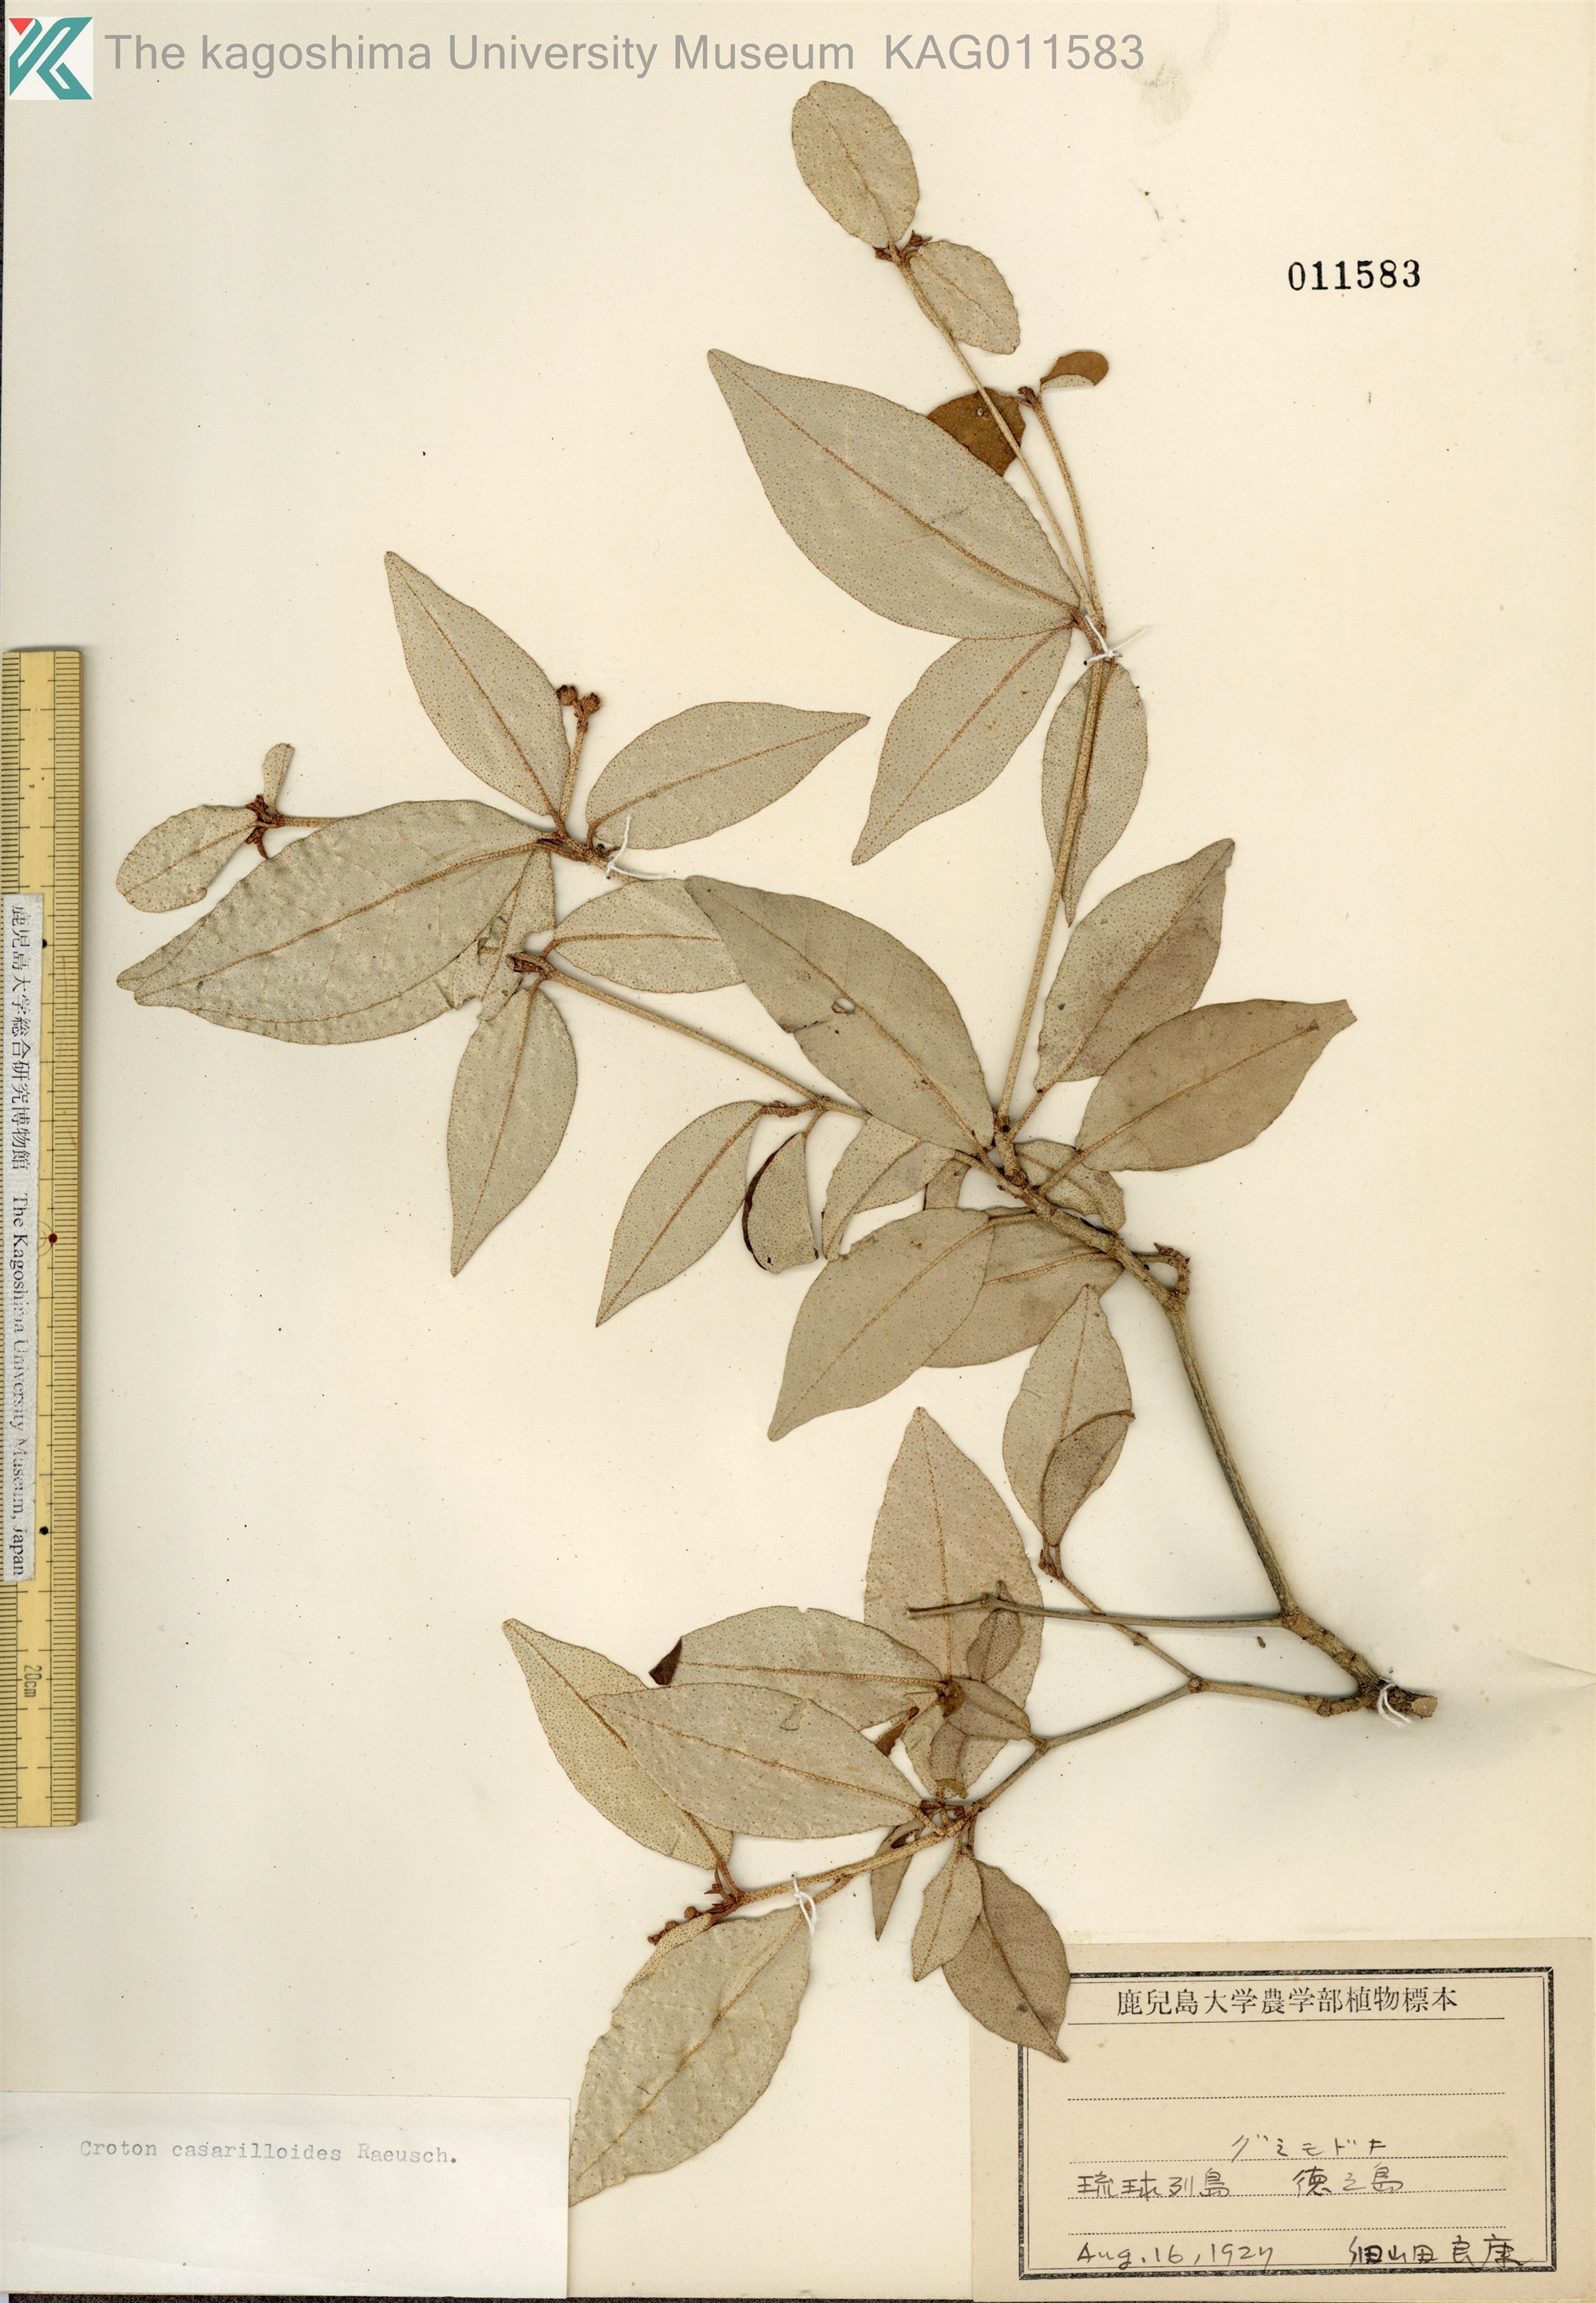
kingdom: Plantae
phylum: Tracheophyta
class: Magnoliopsida
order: Malpighiales
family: Euphorbiaceae
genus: Croton
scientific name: Croton cascarilloides
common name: グミモドキ
